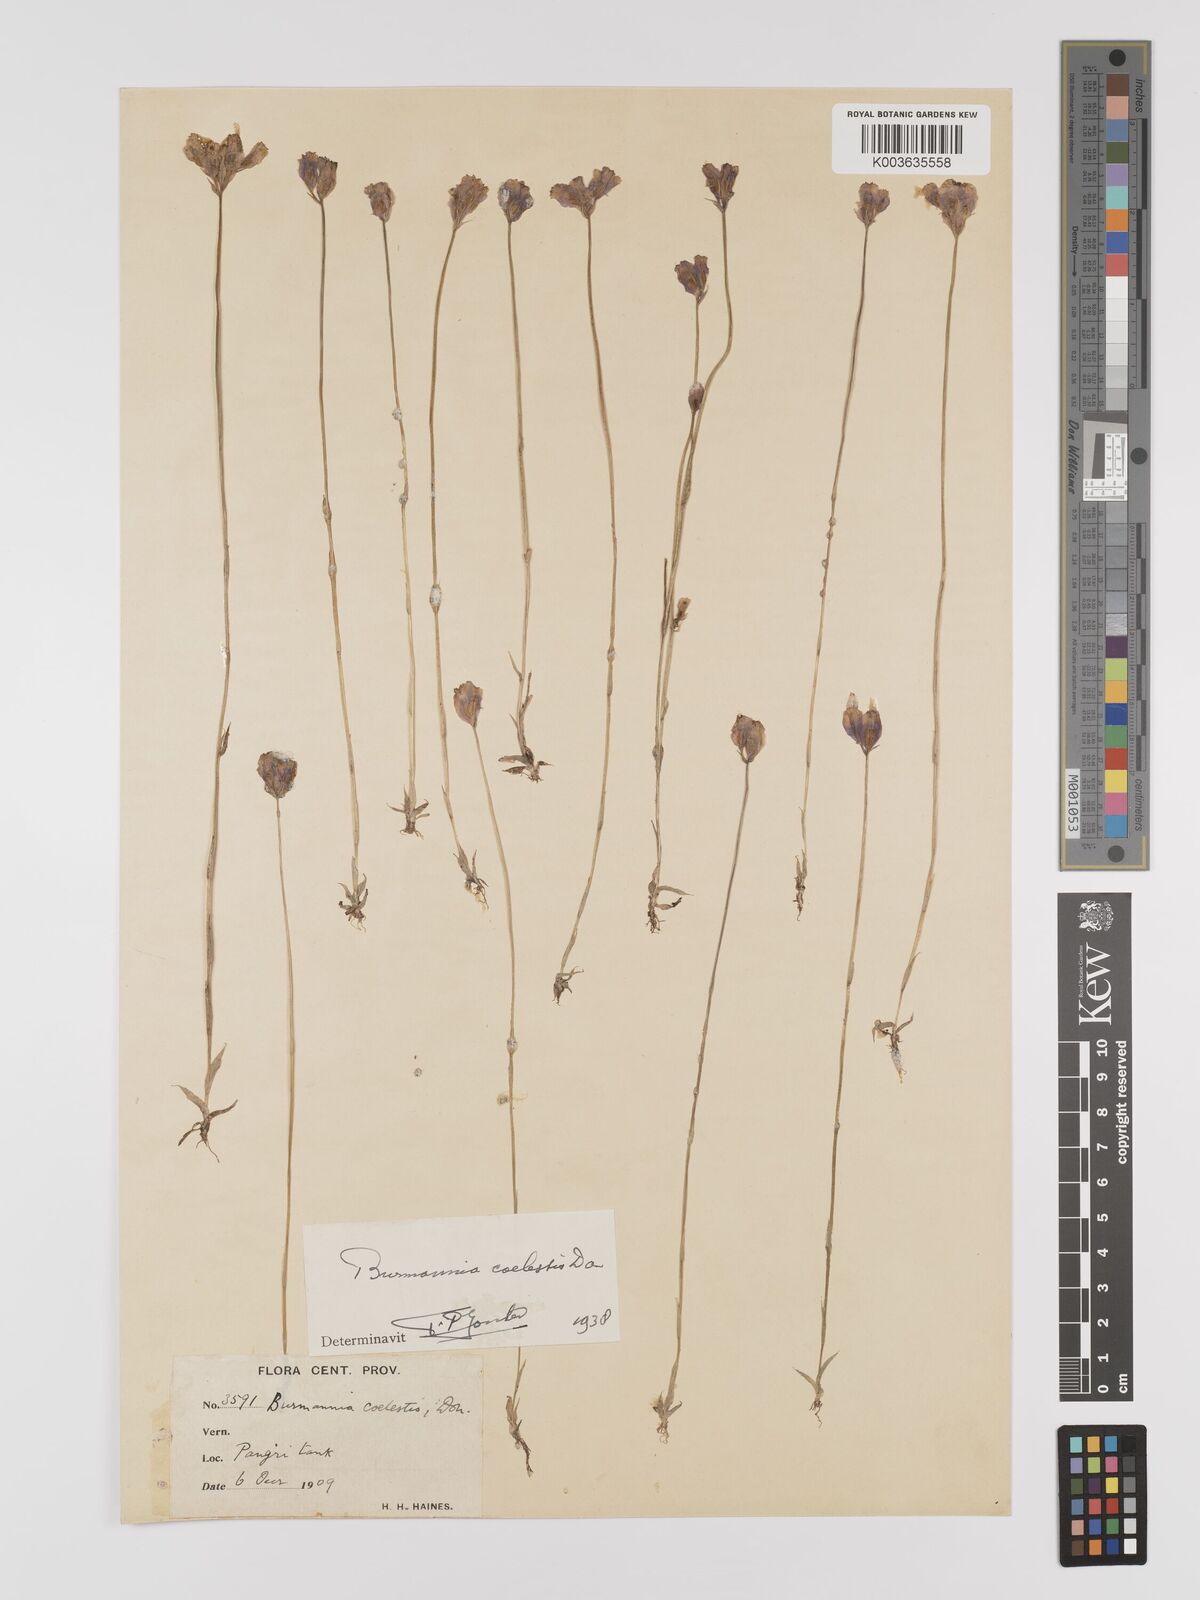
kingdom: Plantae
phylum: Tracheophyta
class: Liliopsida
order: Dioscoreales
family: Burmanniaceae
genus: Burmannia
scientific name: Burmannia coelestis
